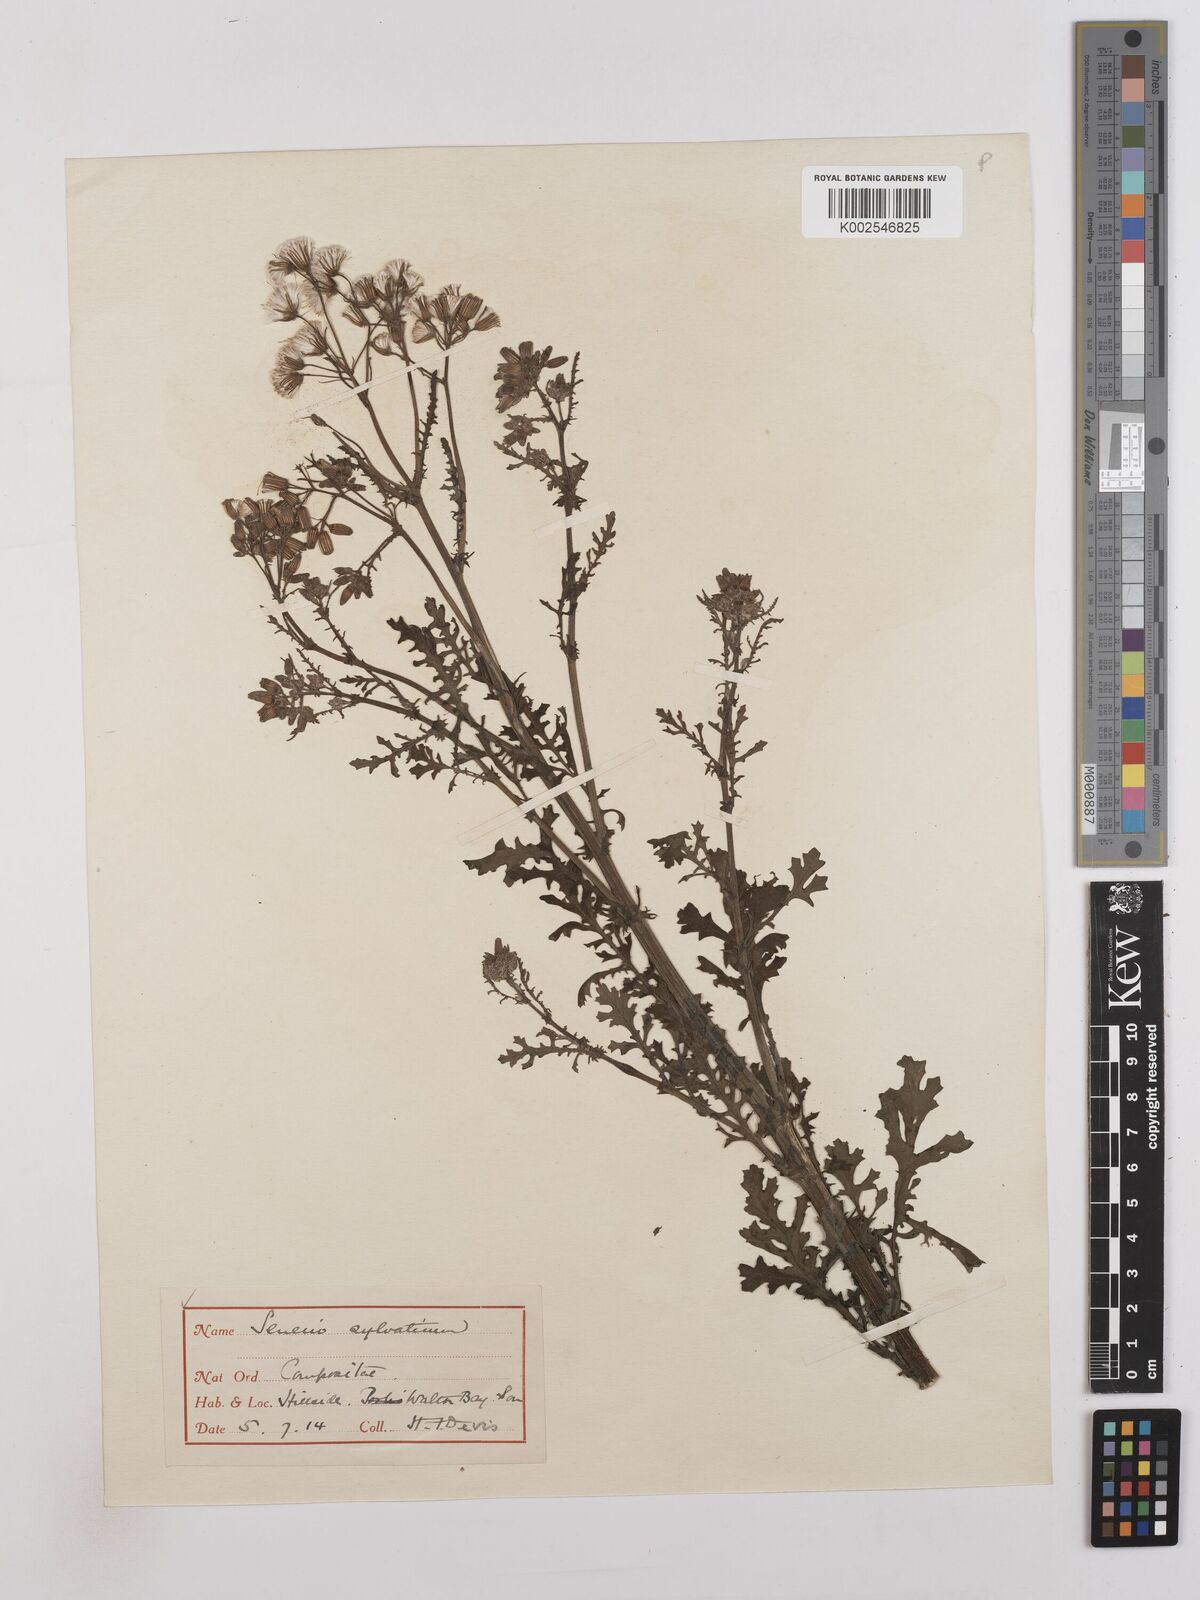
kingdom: Plantae
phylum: Tracheophyta
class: Magnoliopsida
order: Asterales
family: Asteraceae
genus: Senecio
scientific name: Senecio sylvaticus
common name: Woodland ragwort
